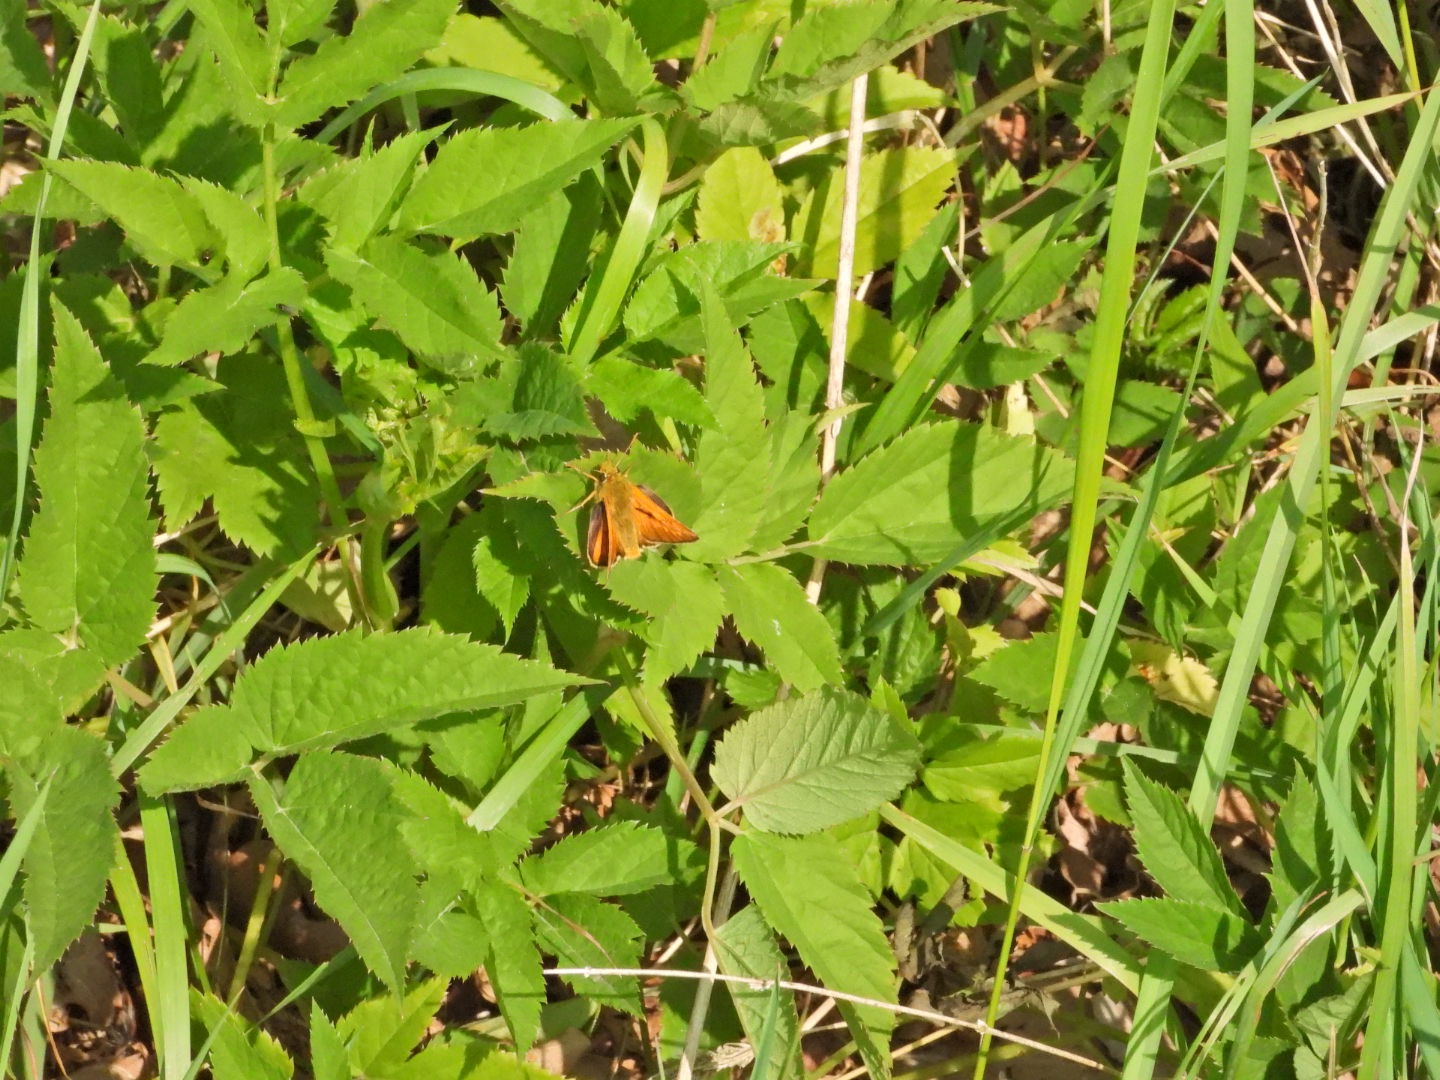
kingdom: Animalia
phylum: Arthropoda
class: Insecta
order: Lepidoptera
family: Hesperiidae
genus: Ochlodes
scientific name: Ochlodes venata
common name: Stor bredpande
